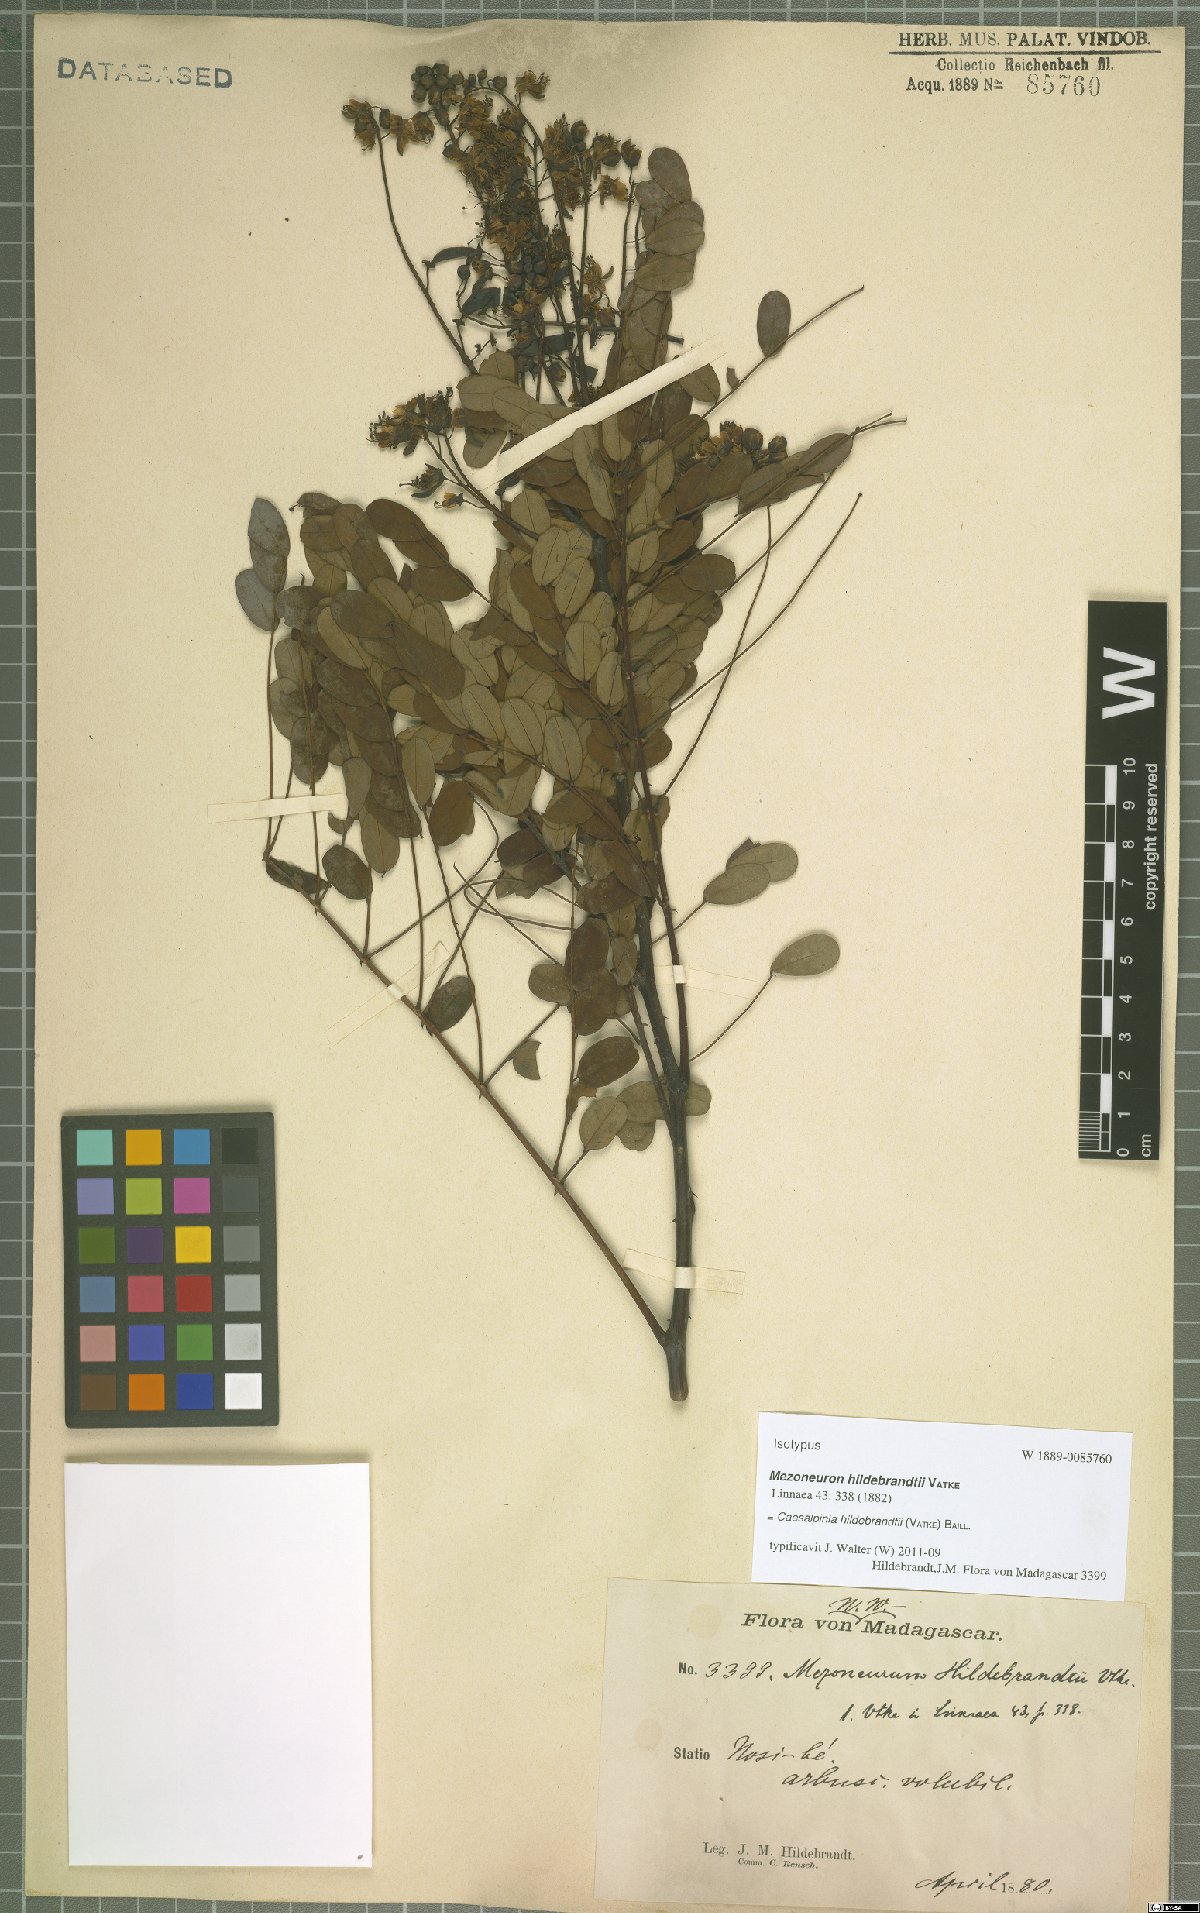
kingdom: Plantae
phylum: Tracheophyta
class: Magnoliopsida
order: Fabales
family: Fabaceae
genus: Mezoneuron
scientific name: Mezoneuron hildebrandtii
